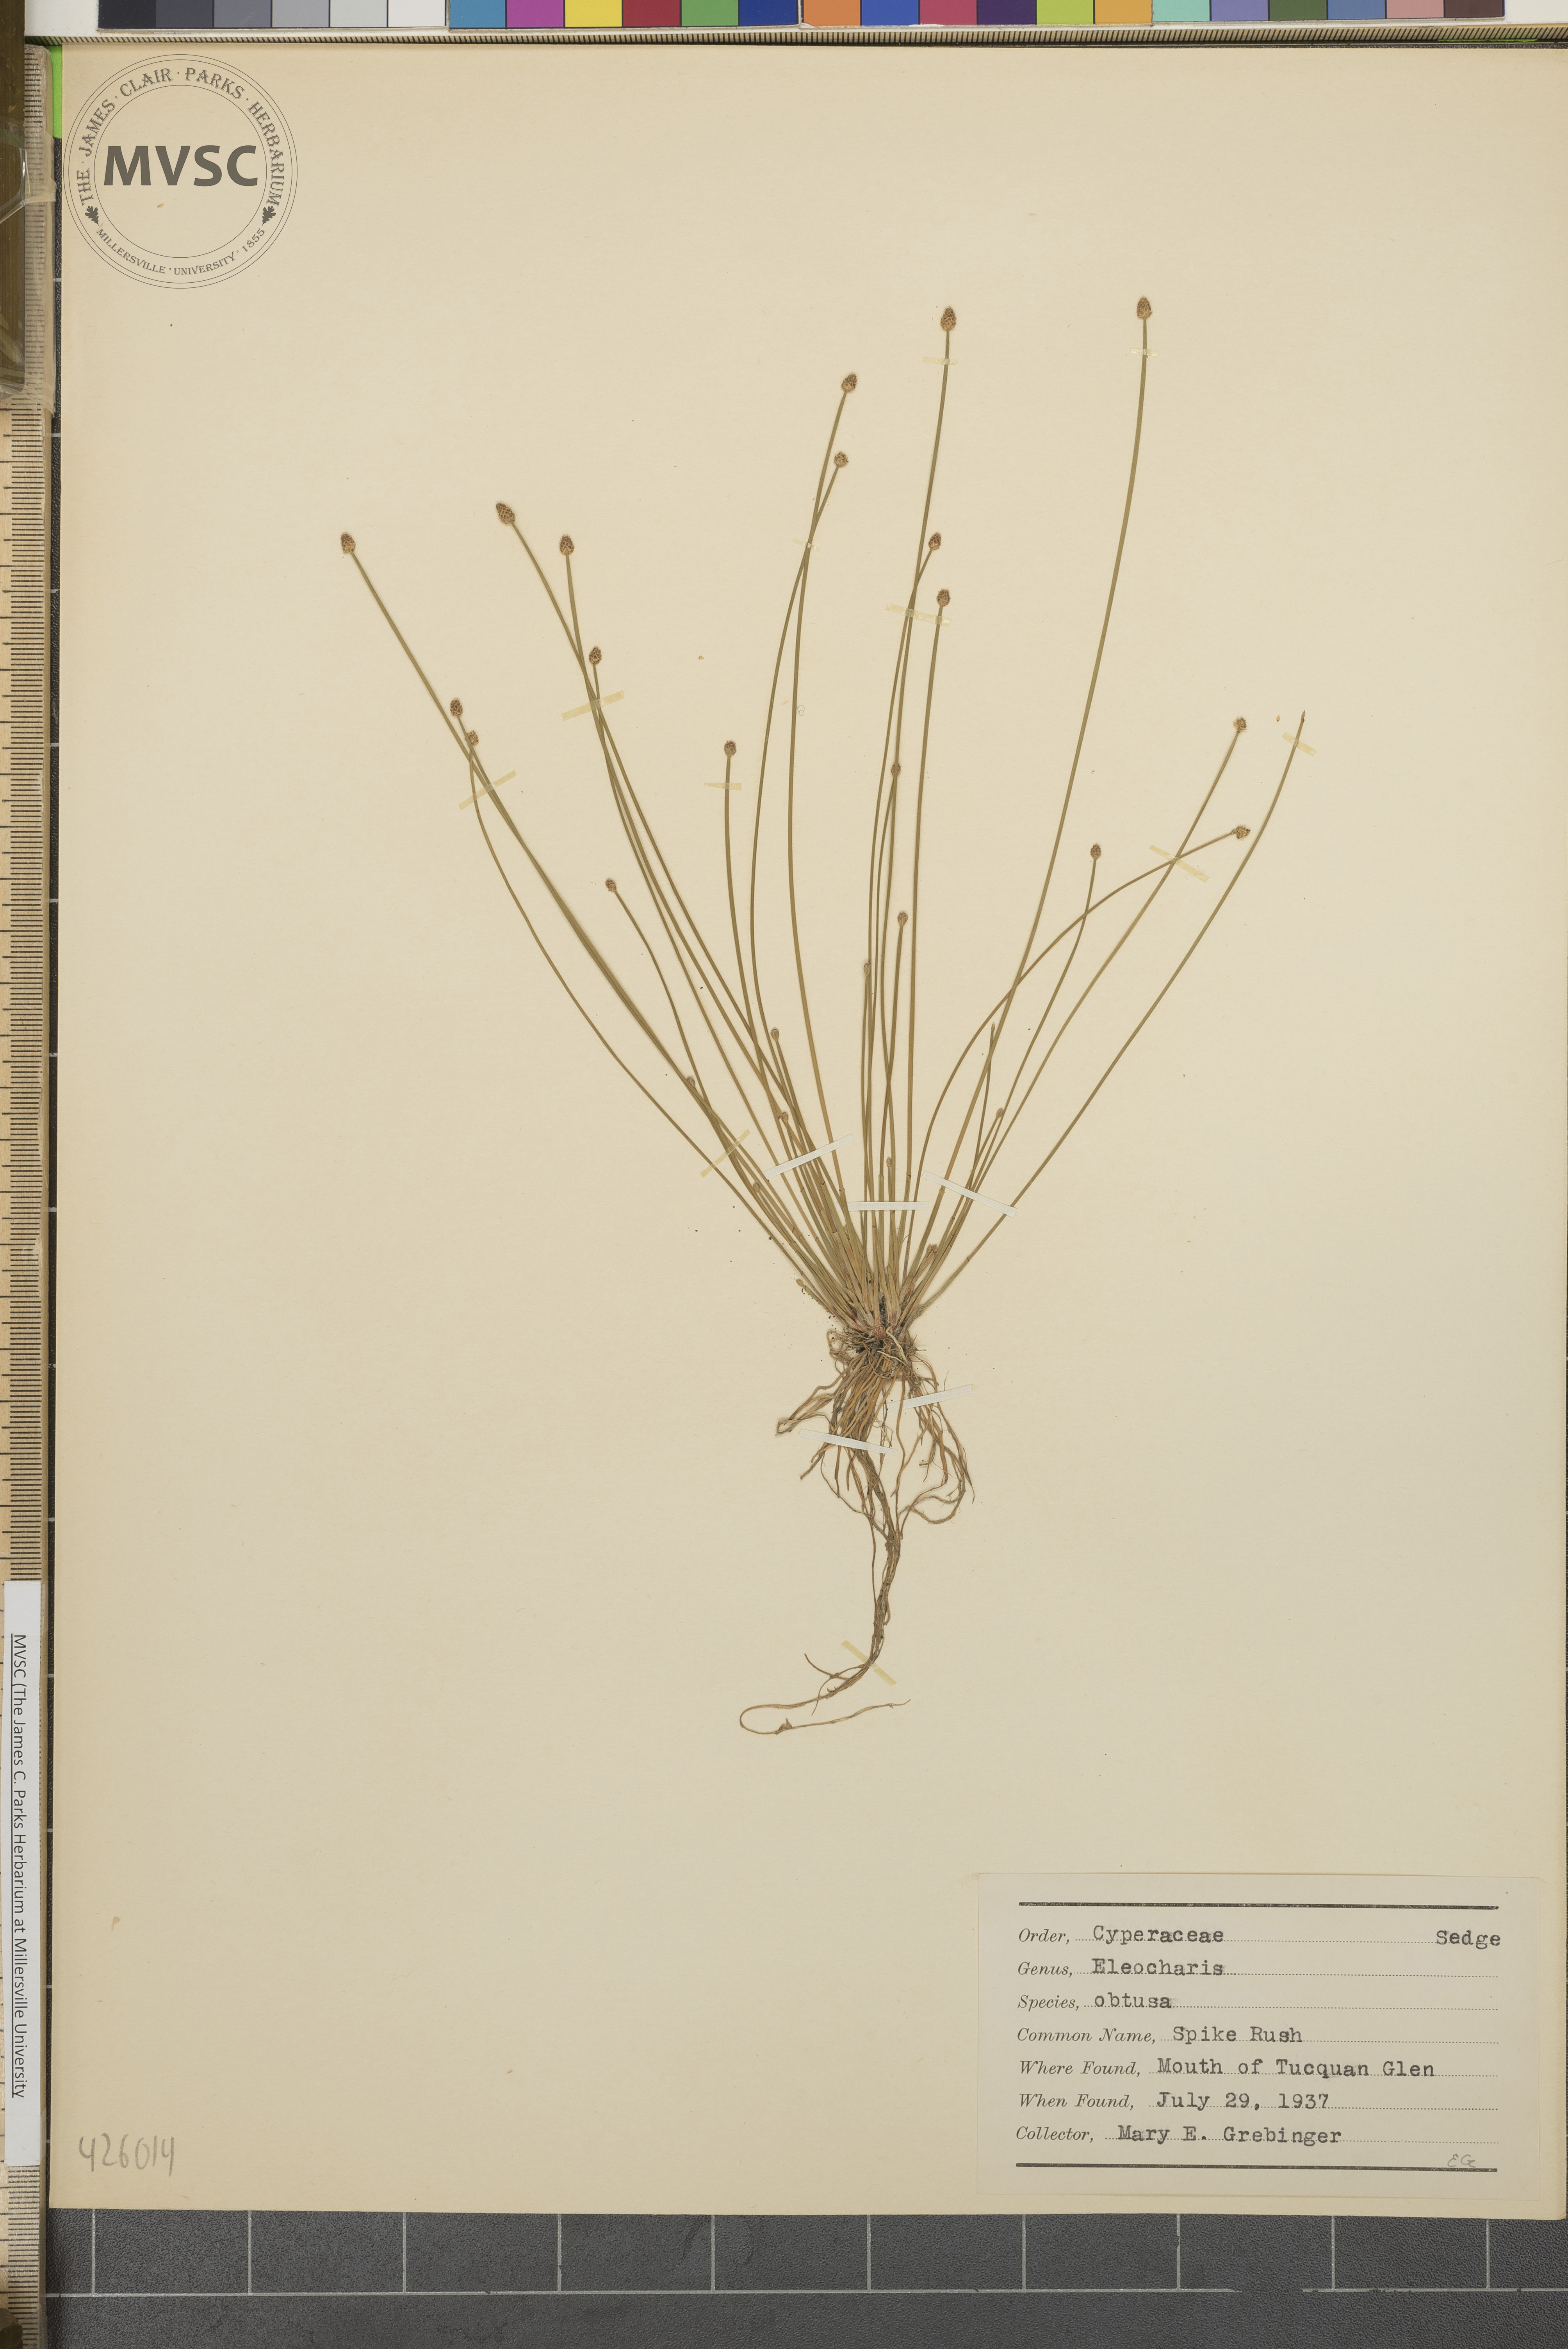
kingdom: Plantae
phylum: Tracheophyta
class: Liliopsida
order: Poales
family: Cyperaceae
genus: Eleocharis
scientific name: Eleocharis obtusa
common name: Spike rush
